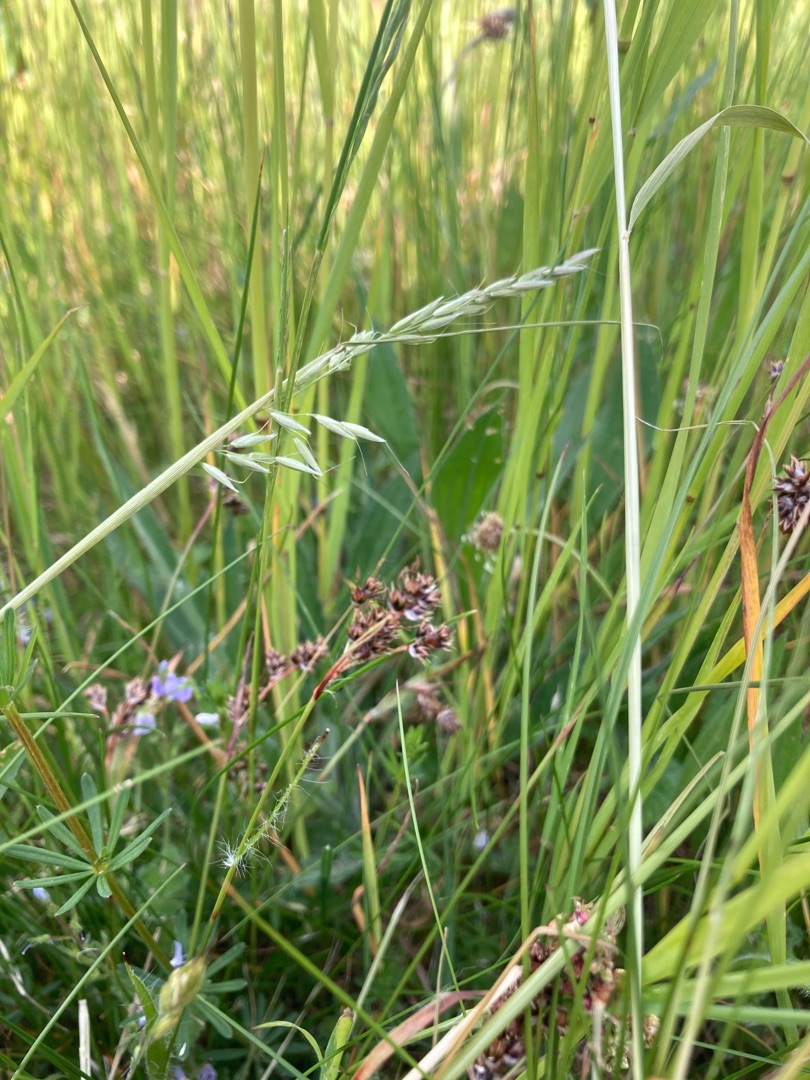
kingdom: Plantae
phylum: Tracheophyta
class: Liliopsida
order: Poales
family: Juncaceae
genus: Luzula
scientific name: Luzula campestris
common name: Mark-frytle
